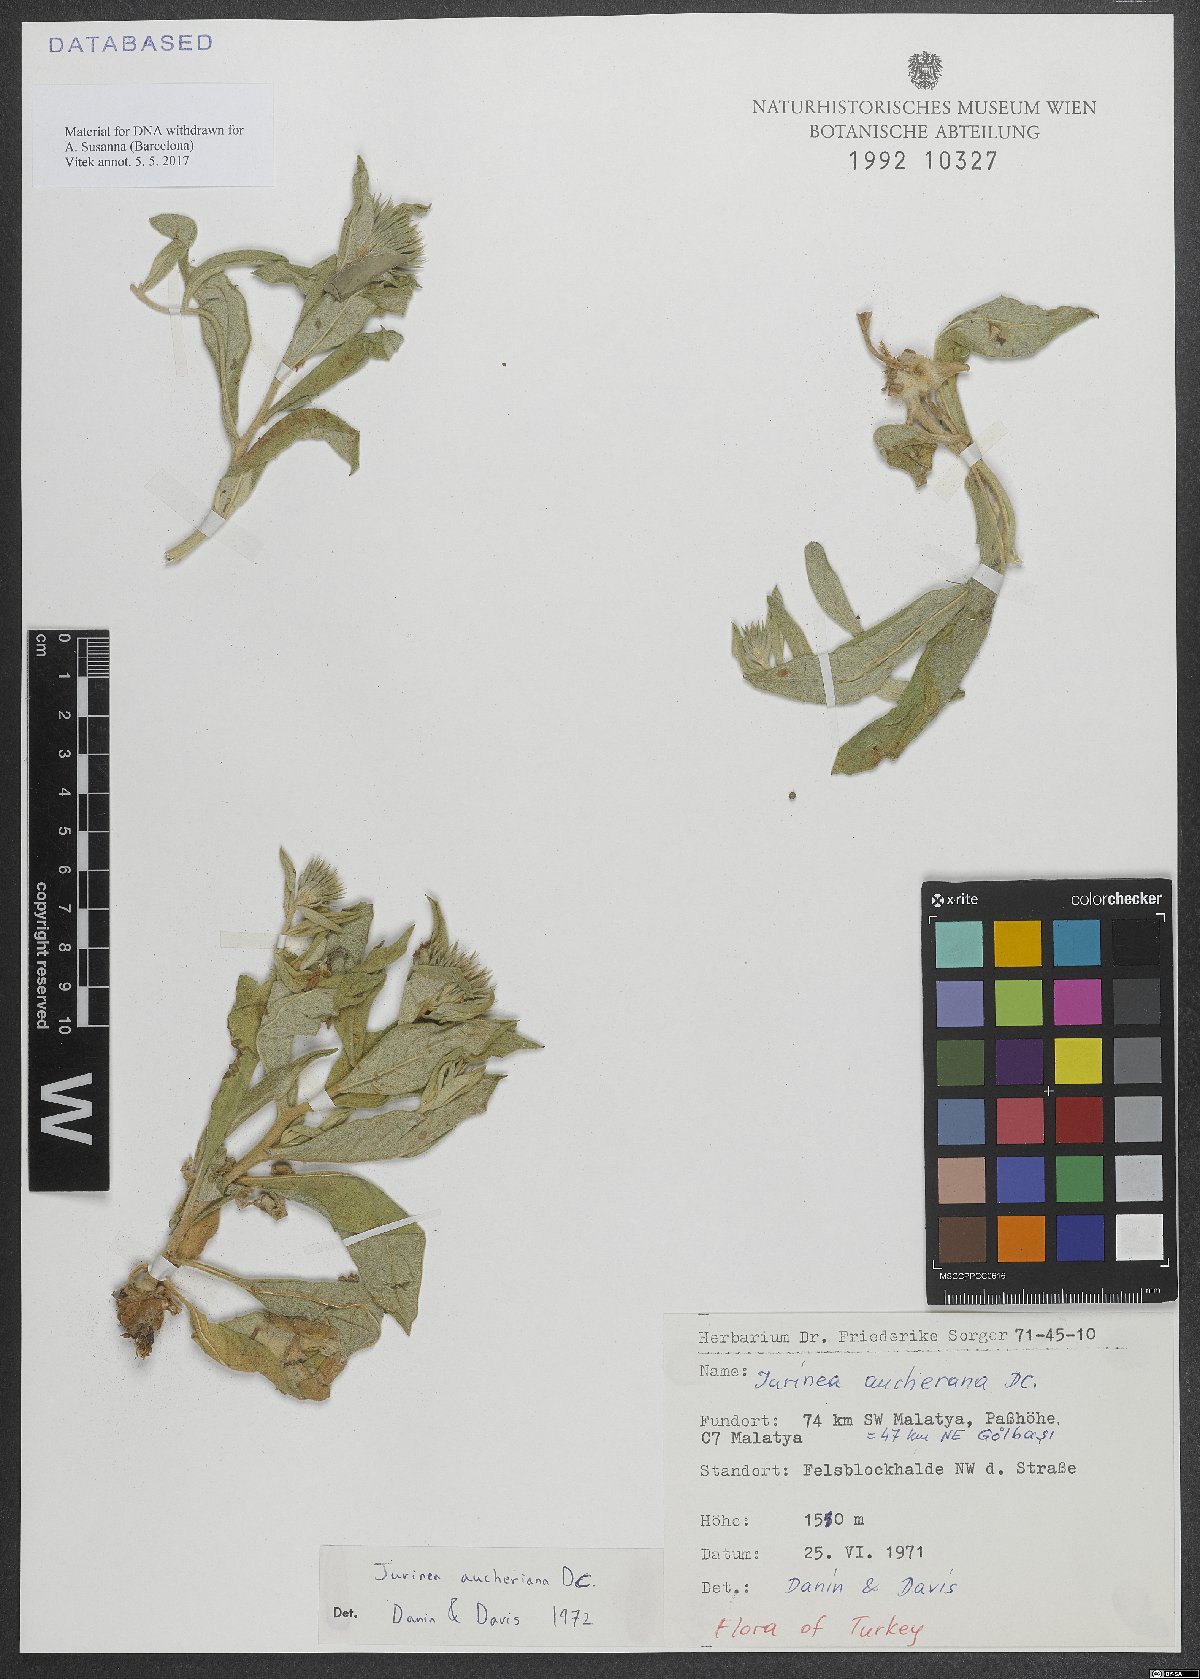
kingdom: Plantae
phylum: Tracheophyta
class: Magnoliopsida
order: Asterales
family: Asteraceae
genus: Jurinea
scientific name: Jurinea aucheriana
